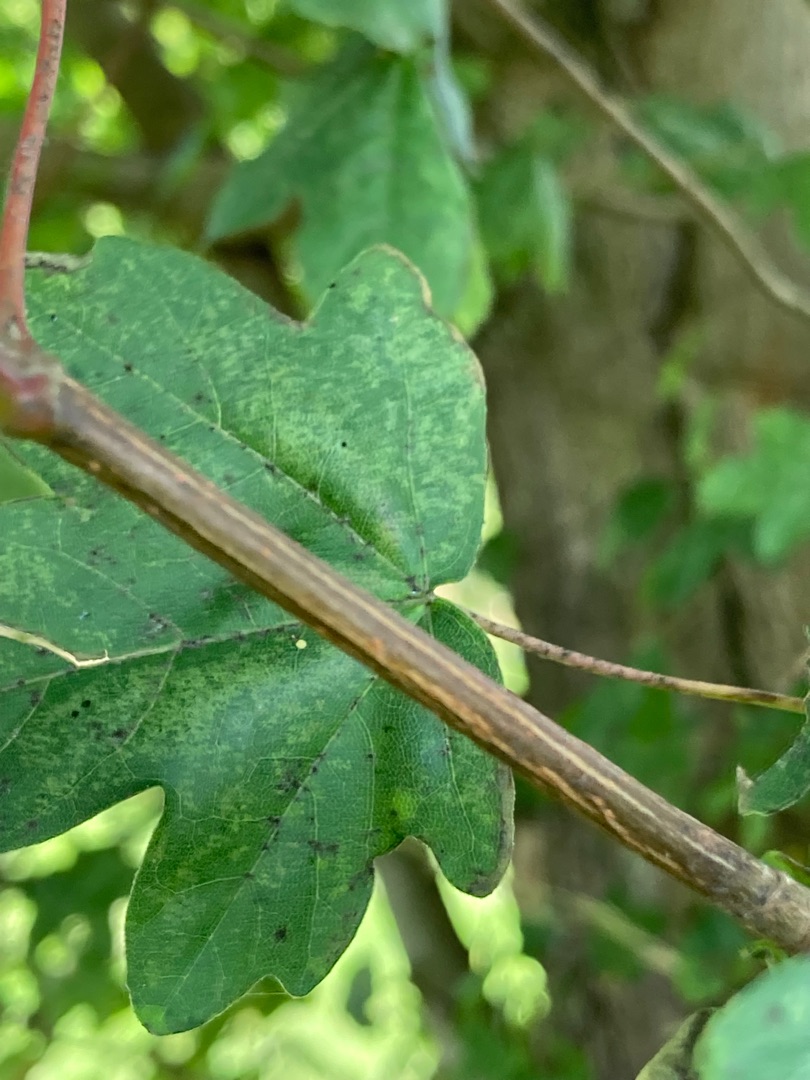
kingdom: Plantae
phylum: Tracheophyta
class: Magnoliopsida
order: Sapindales
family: Sapindaceae
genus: Acer
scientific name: Acer campestre
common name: Navr
